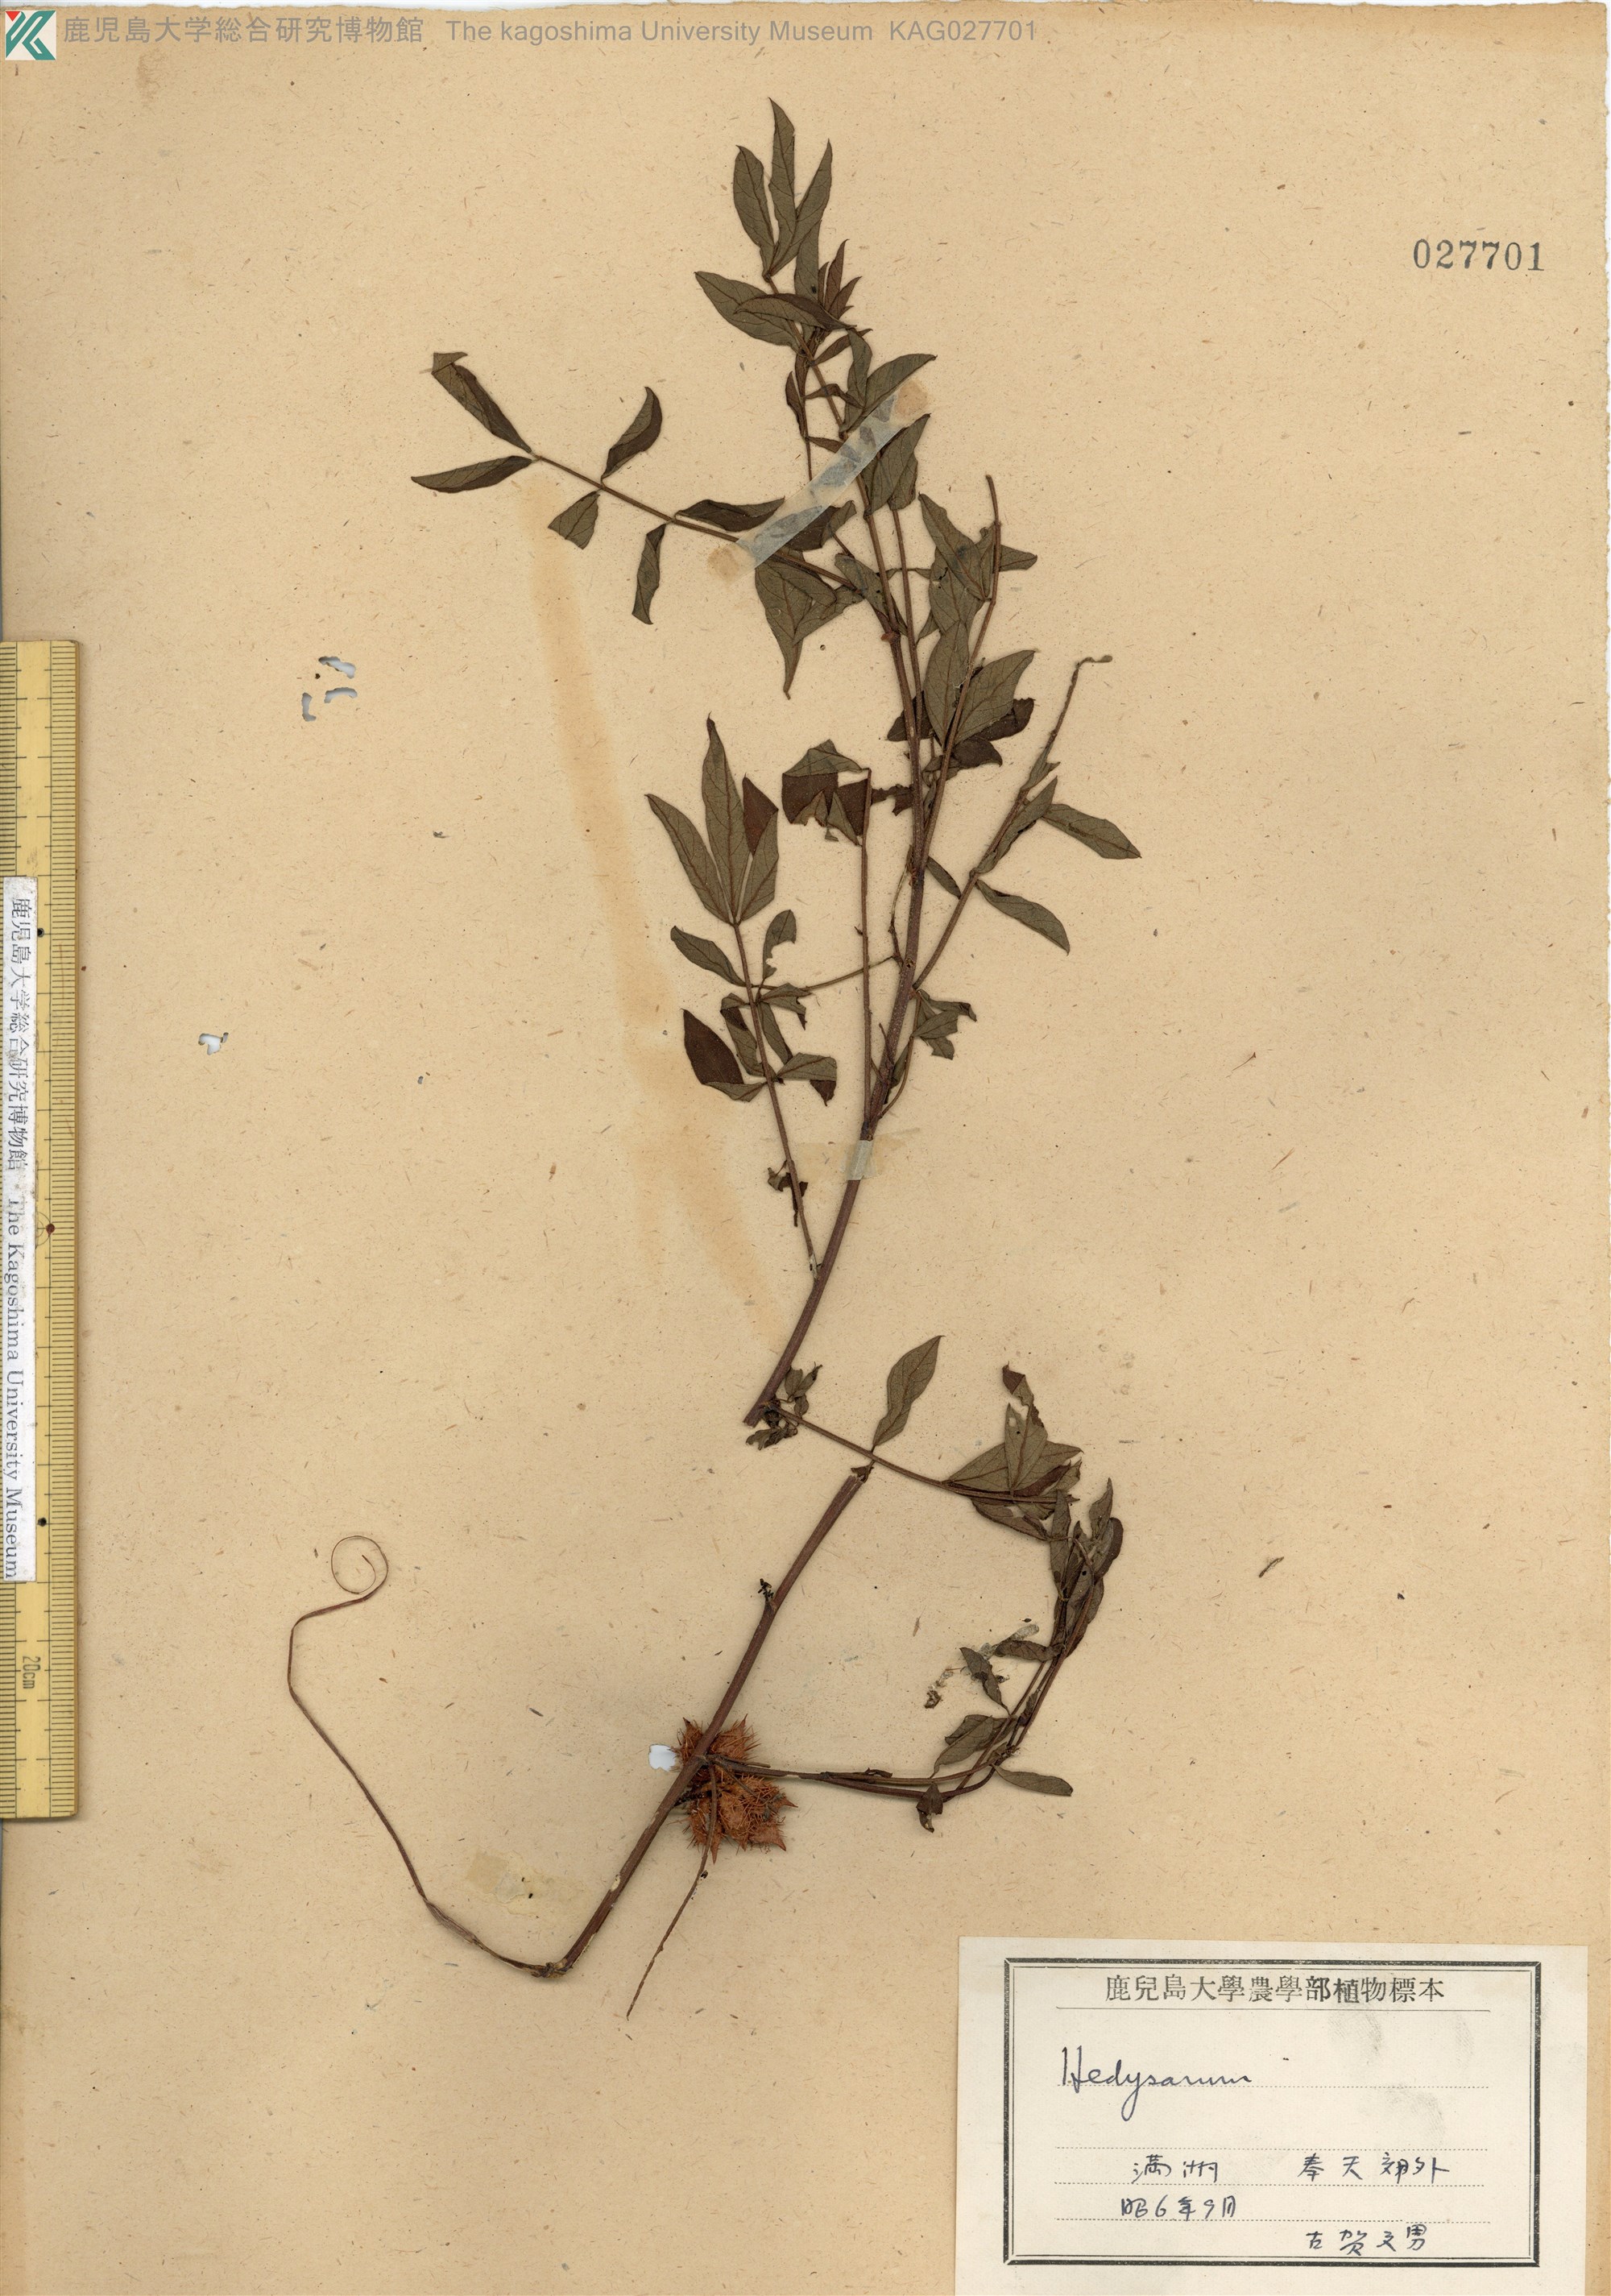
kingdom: Plantae
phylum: Tracheophyta
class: Magnoliopsida
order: Fabales
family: Fabaceae
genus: Glycyrrhiza
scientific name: Glycyrrhiza pallidiflora
